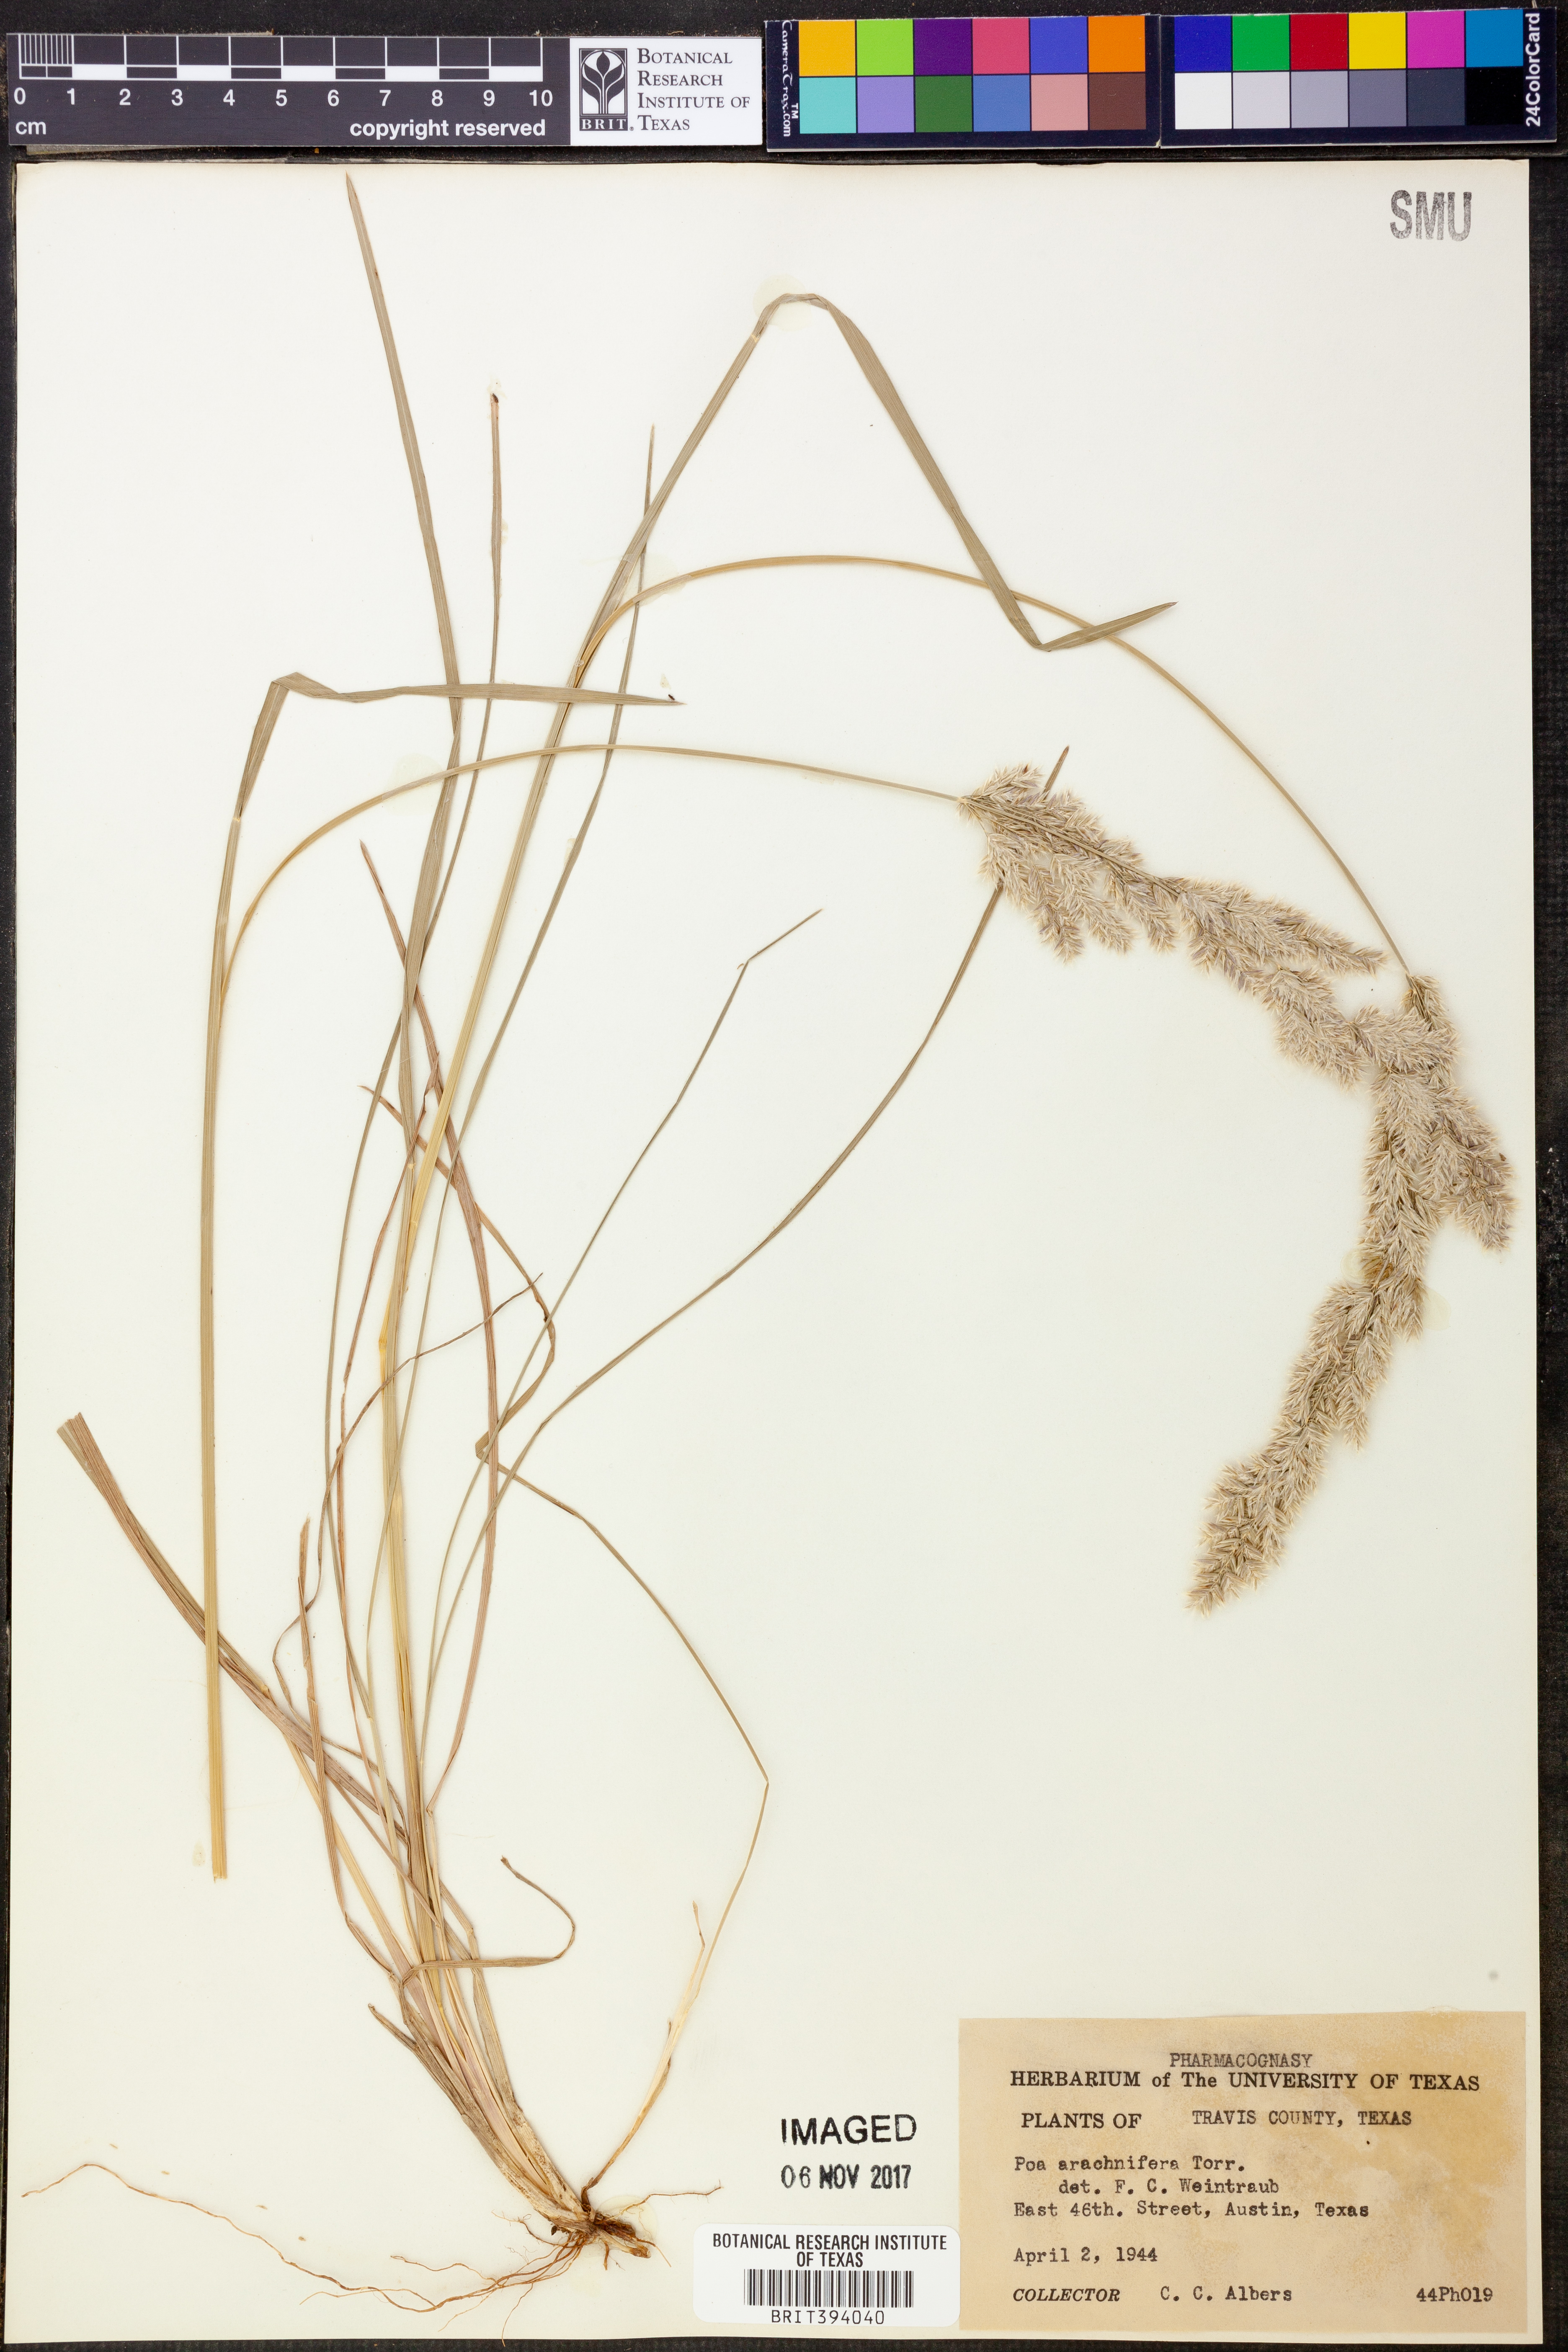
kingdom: Plantae
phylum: Tracheophyta
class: Liliopsida
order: Poales
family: Poaceae
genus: Poa
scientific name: Poa arachnifera
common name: Texas bluegrass
